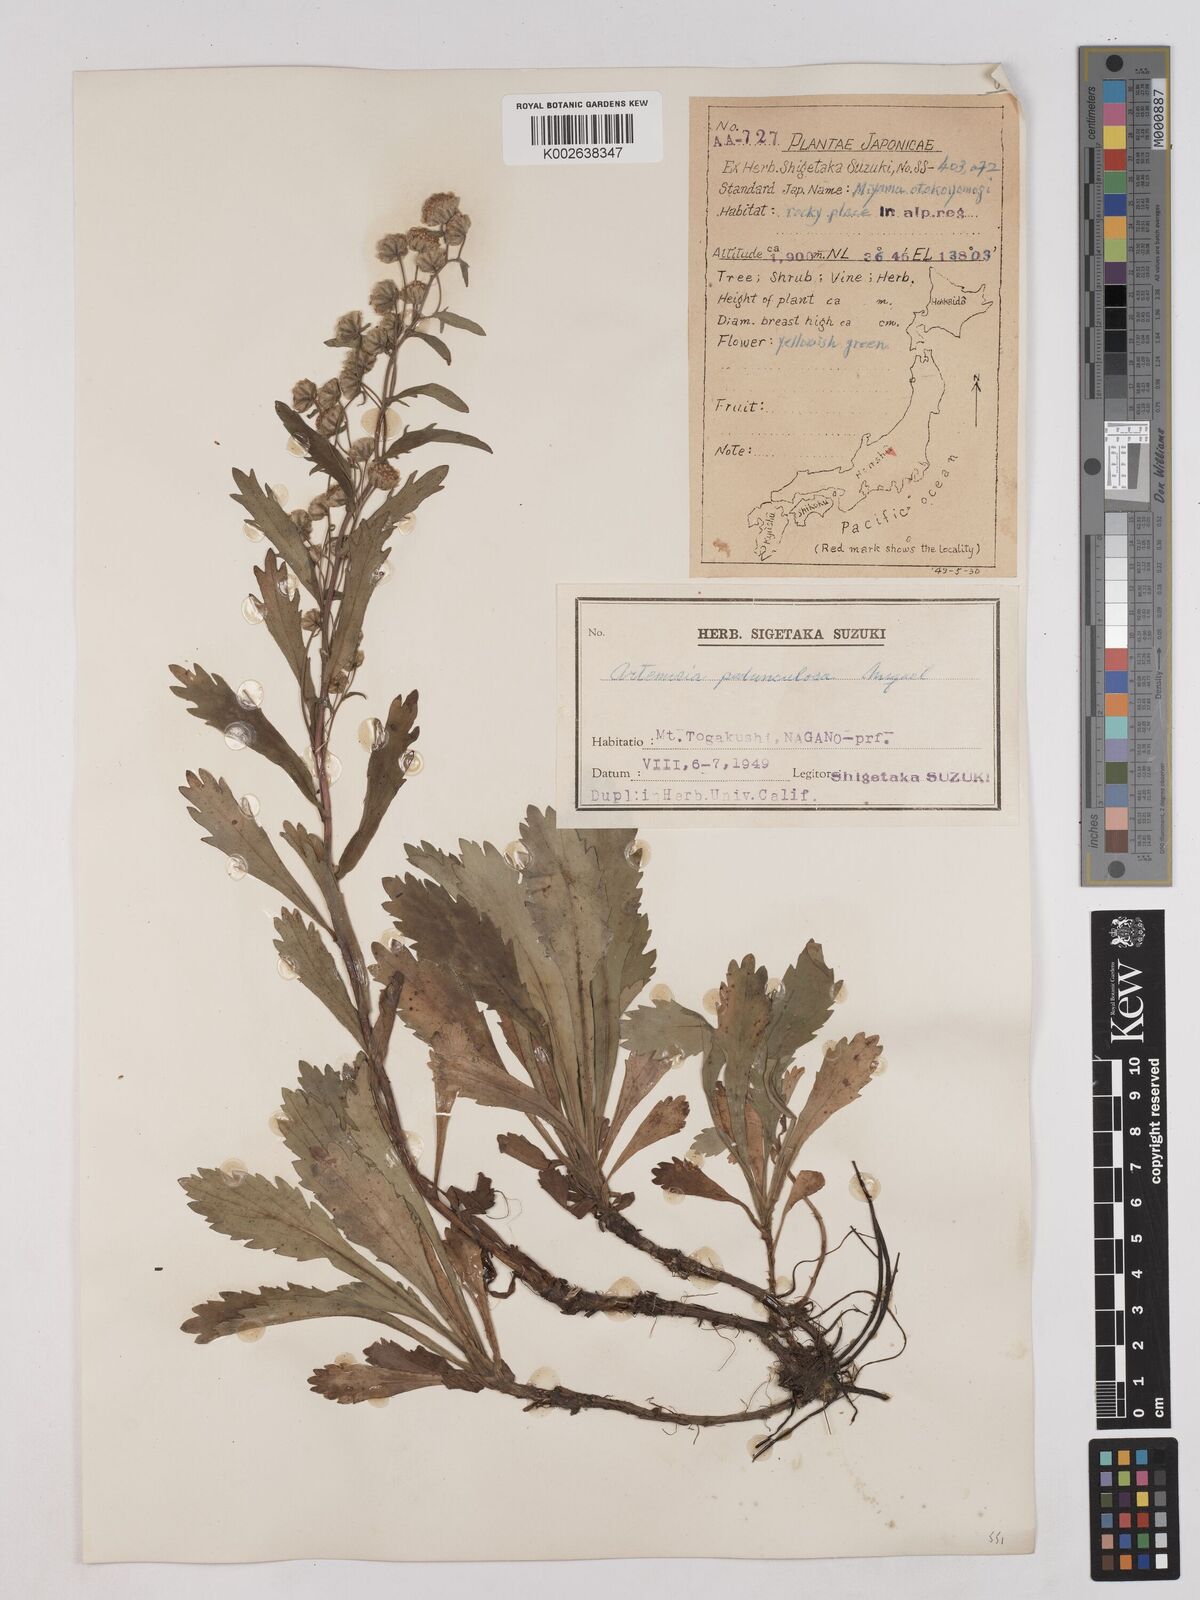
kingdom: Plantae
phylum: Tracheophyta
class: Magnoliopsida
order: Asterales
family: Asteraceae
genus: Artemisia
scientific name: Artemisia pedunculosa
